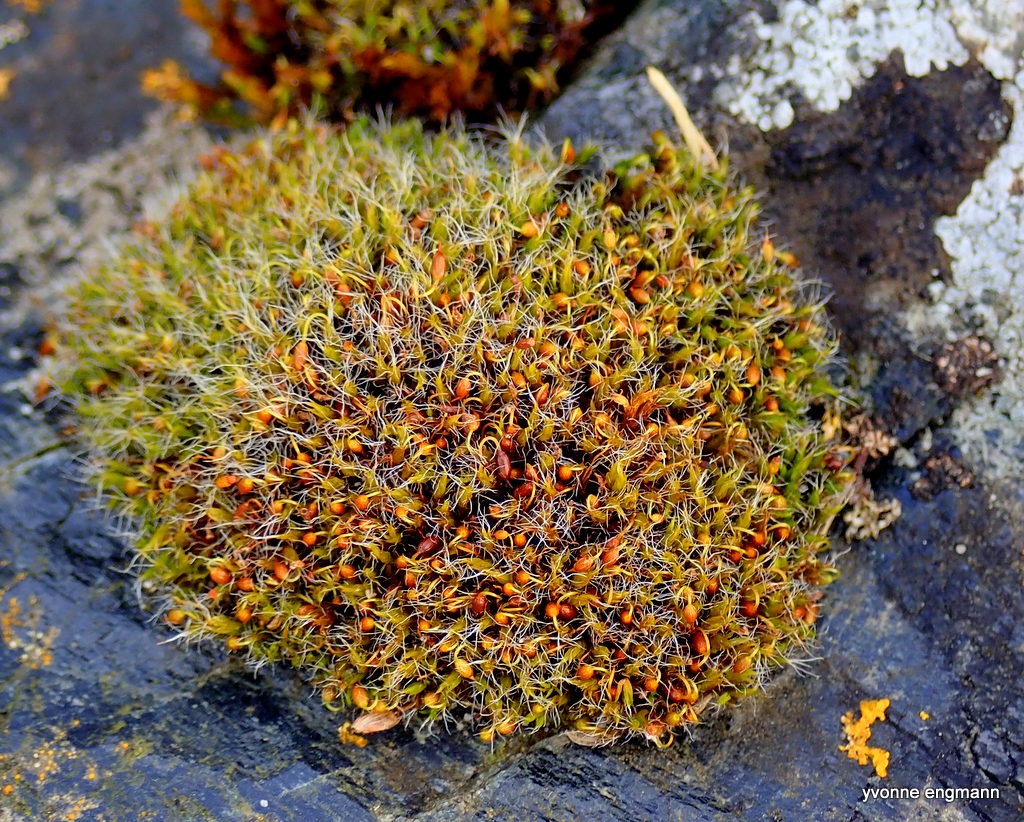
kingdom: Plantae
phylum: Bryophyta
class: Bryopsida
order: Grimmiales
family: Grimmiaceae
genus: Grimmia
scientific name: Grimmia pulvinata
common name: Pude-gråmos
